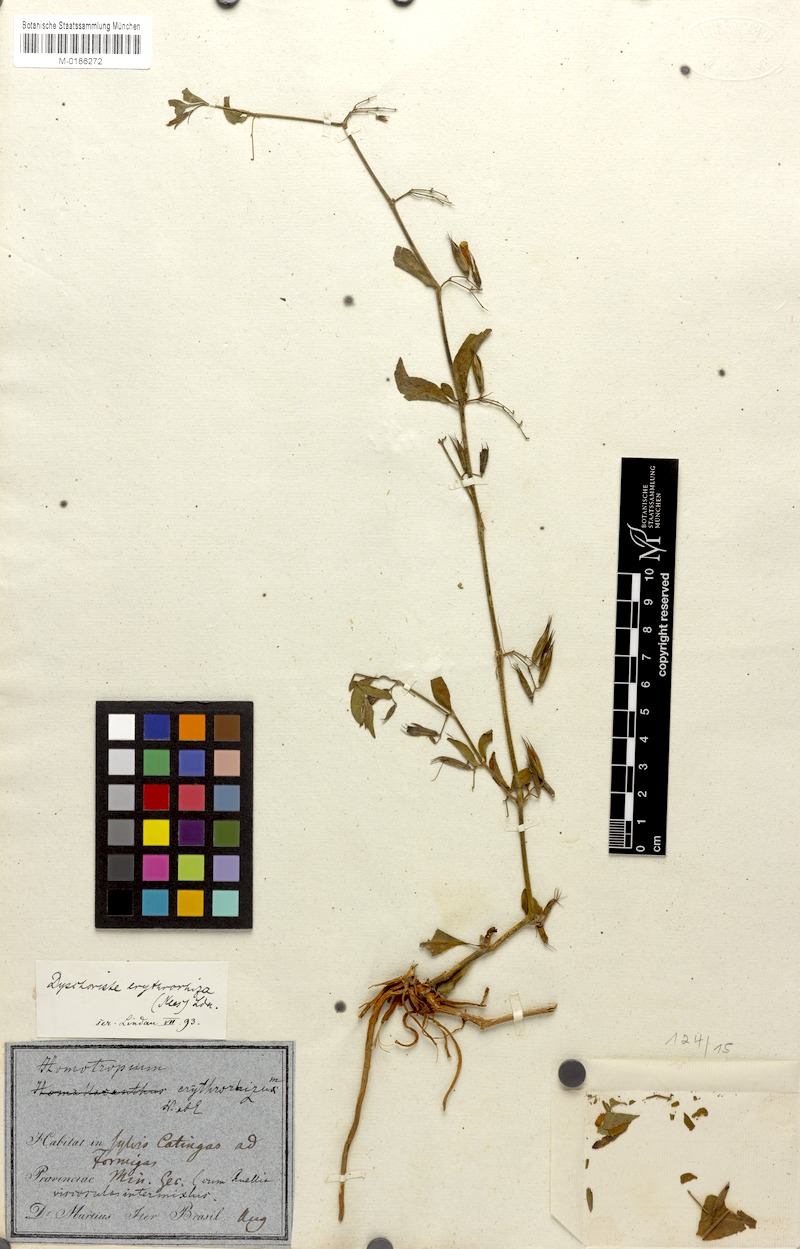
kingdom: Plantae
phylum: Tracheophyta
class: Magnoliopsida
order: Lamiales
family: Acanthaceae
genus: Dyschoriste
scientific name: Dyschoriste erythrorhiza
